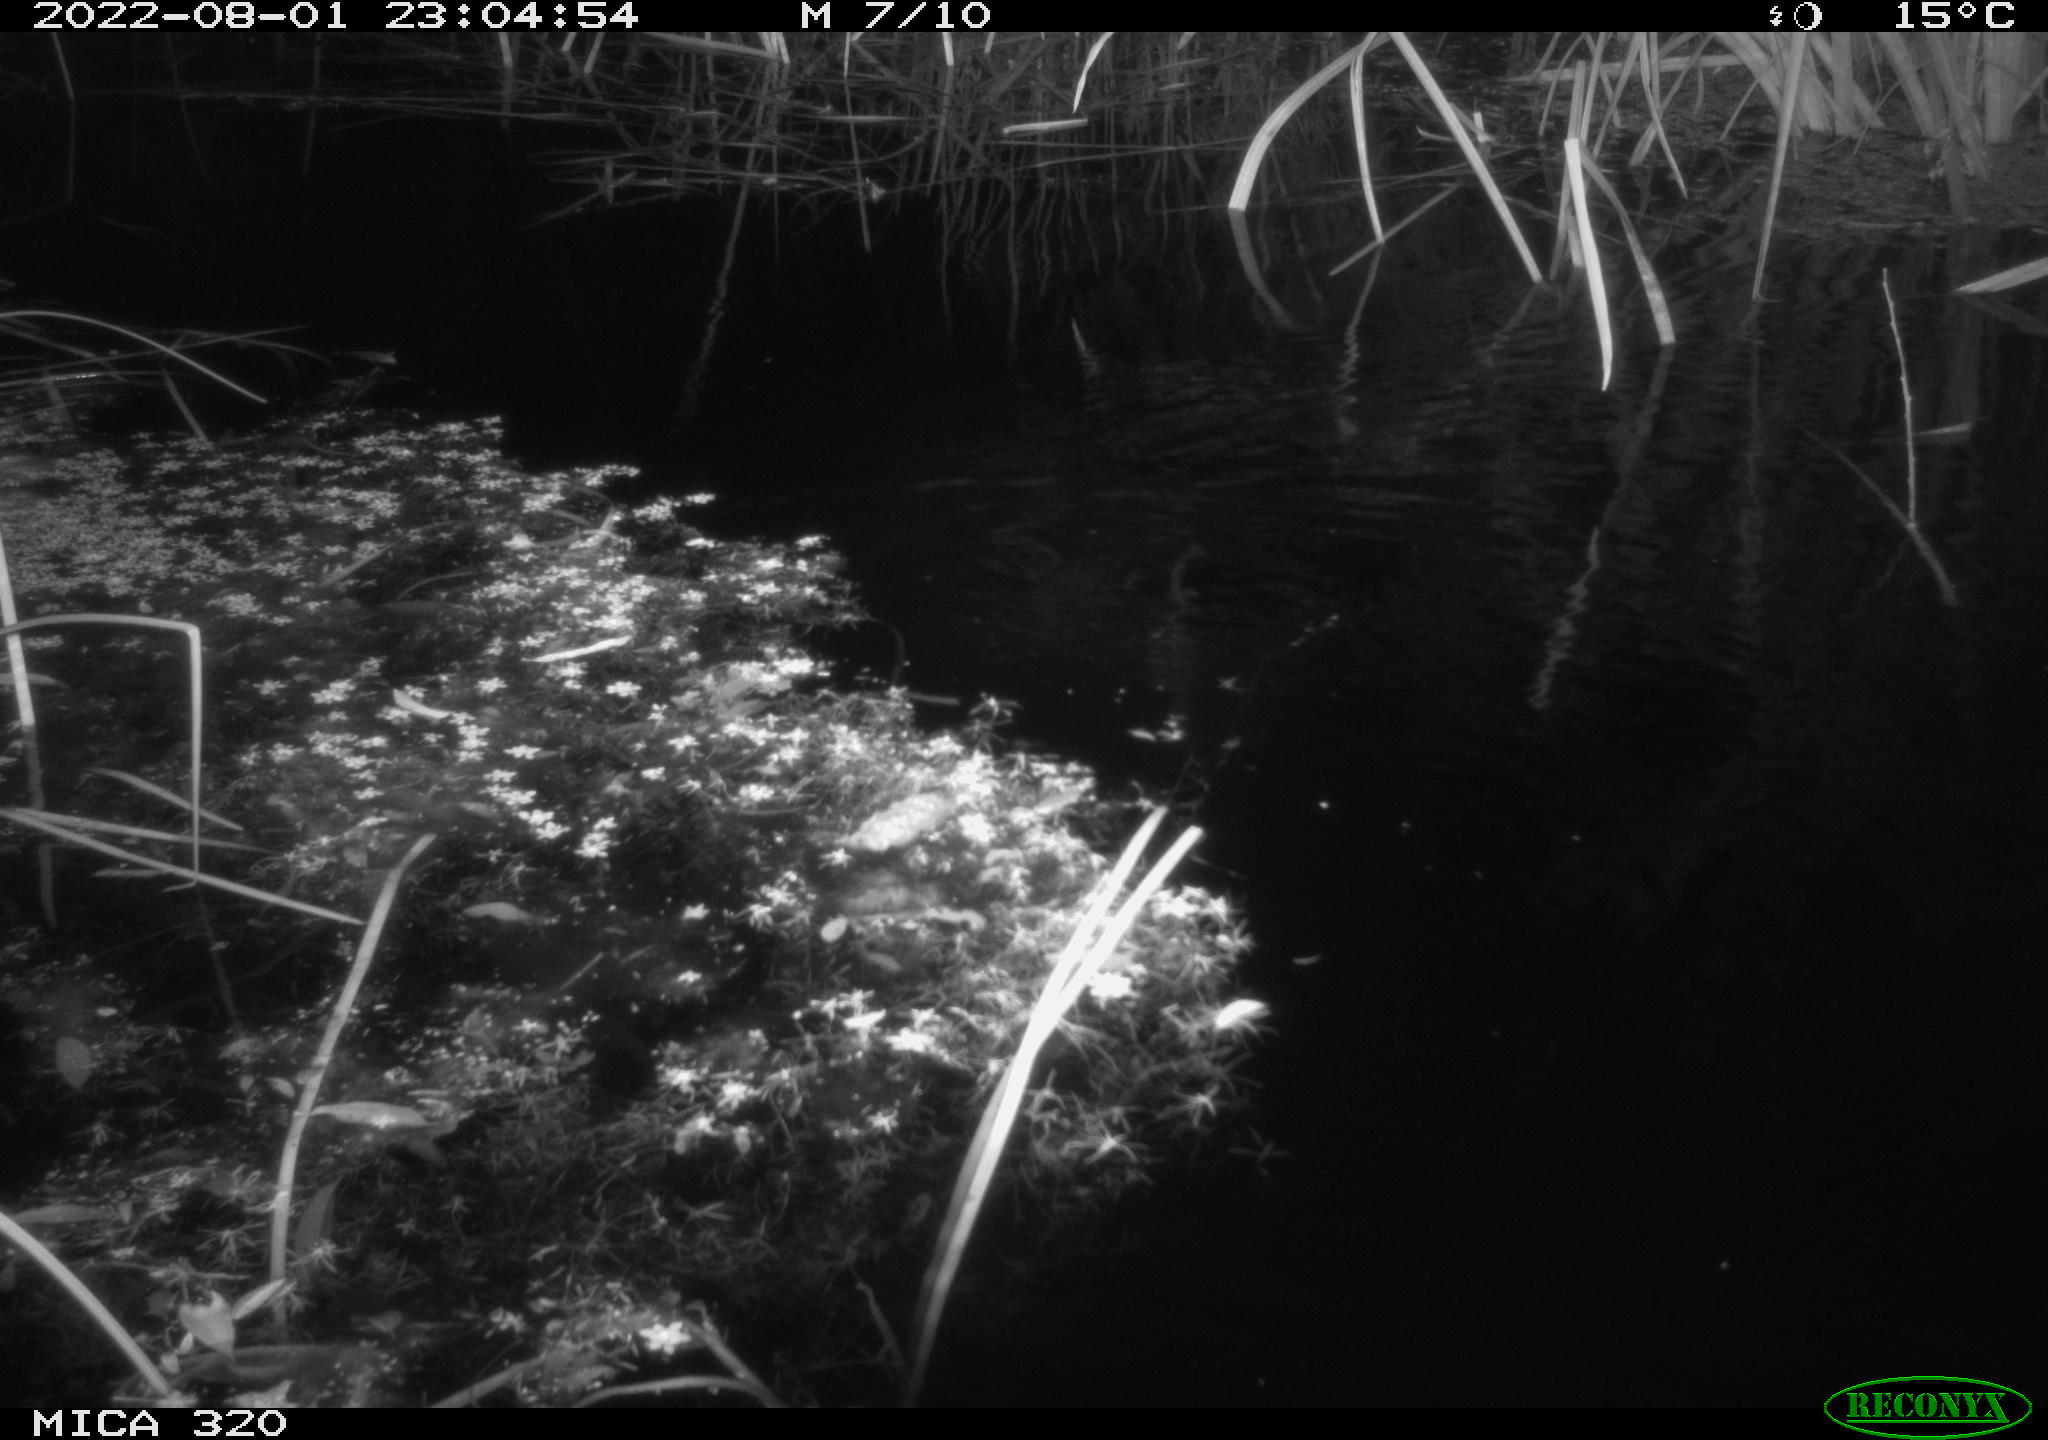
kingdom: Animalia
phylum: Chordata
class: Mammalia
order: Rodentia
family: Muridae
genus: Rattus
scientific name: Rattus norvegicus
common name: Brown rat
